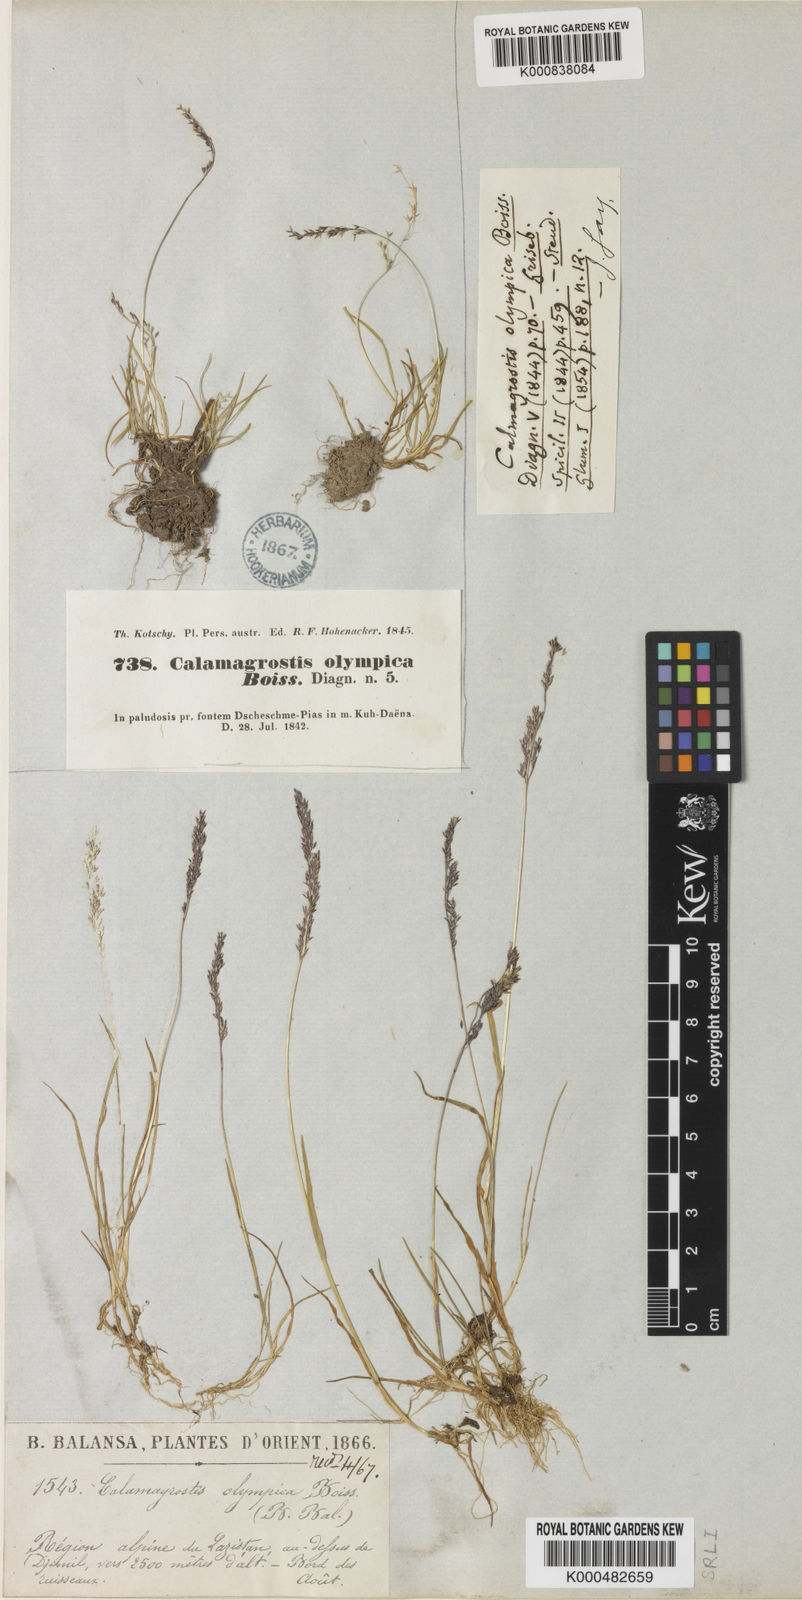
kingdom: Plantae
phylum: Tracheophyta
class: Liliopsida
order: Poales
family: Poaceae
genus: Agrostis
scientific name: Agrostis olympica
